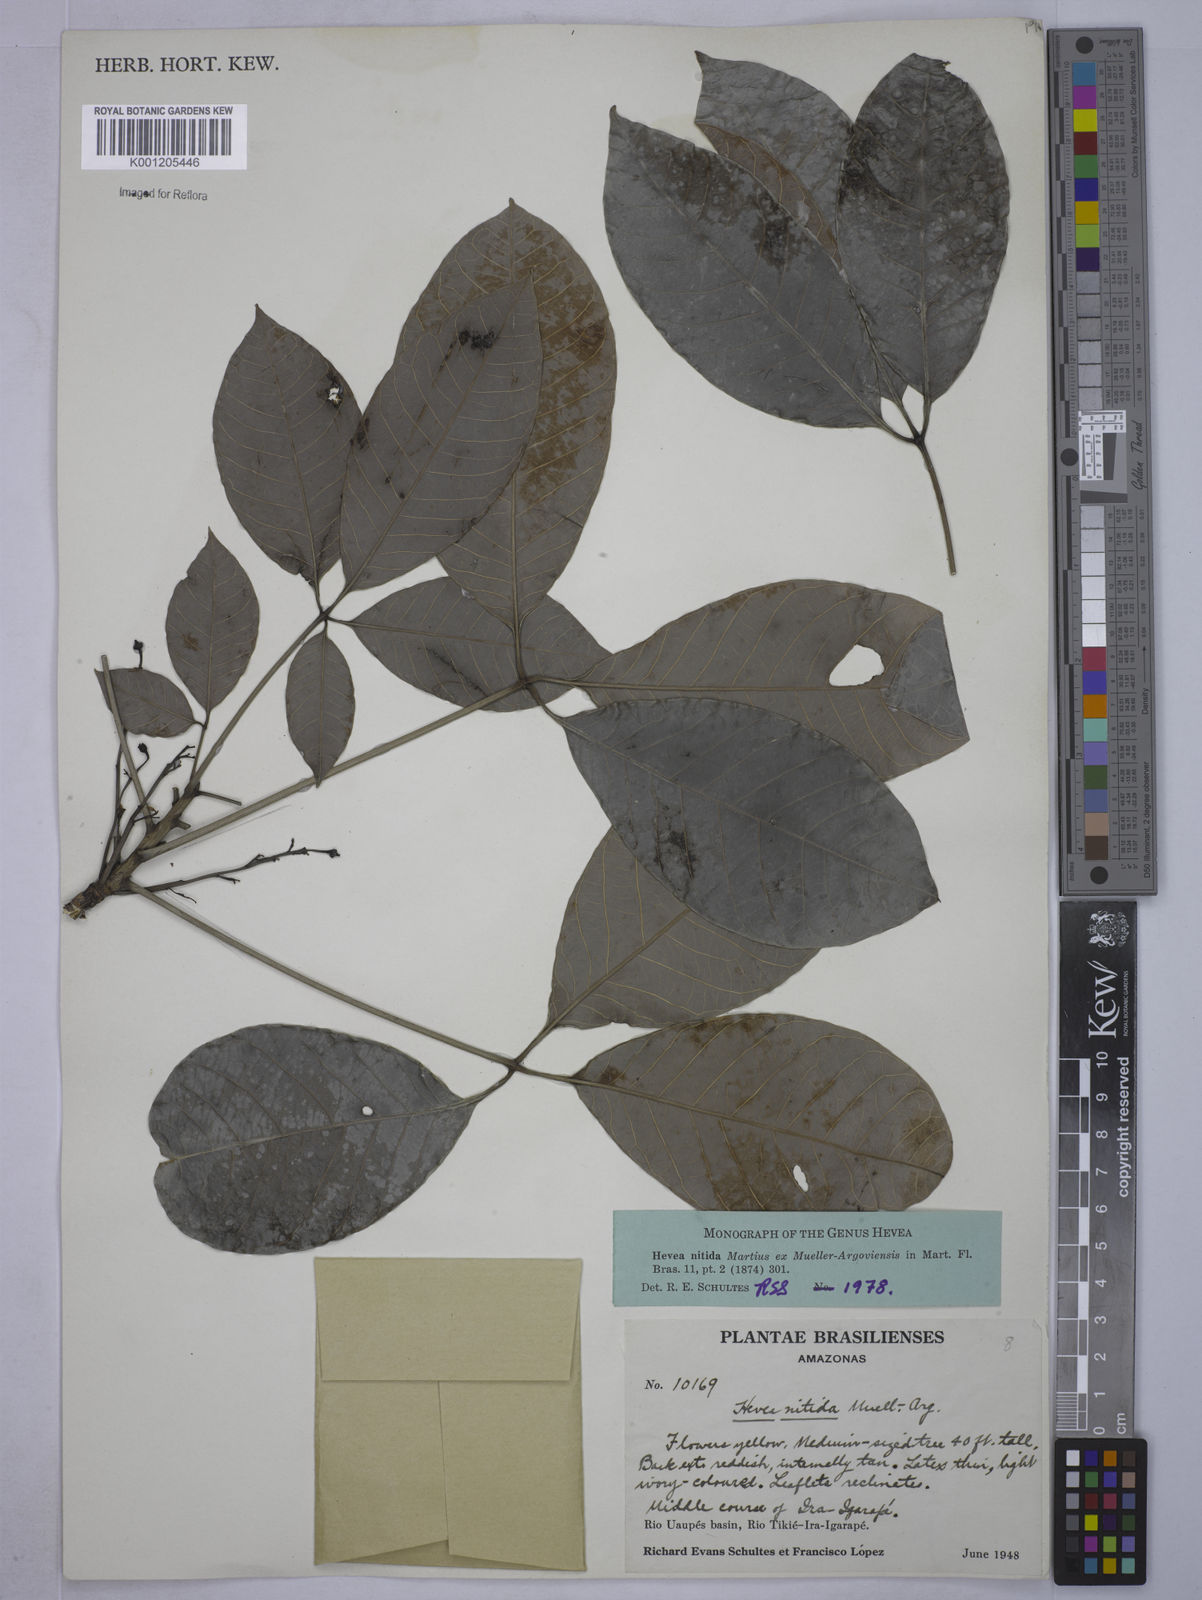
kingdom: Plantae
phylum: Tracheophyta
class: Magnoliopsida
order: Malpighiales
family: Euphorbiaceae
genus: Hevea
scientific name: Hevea
